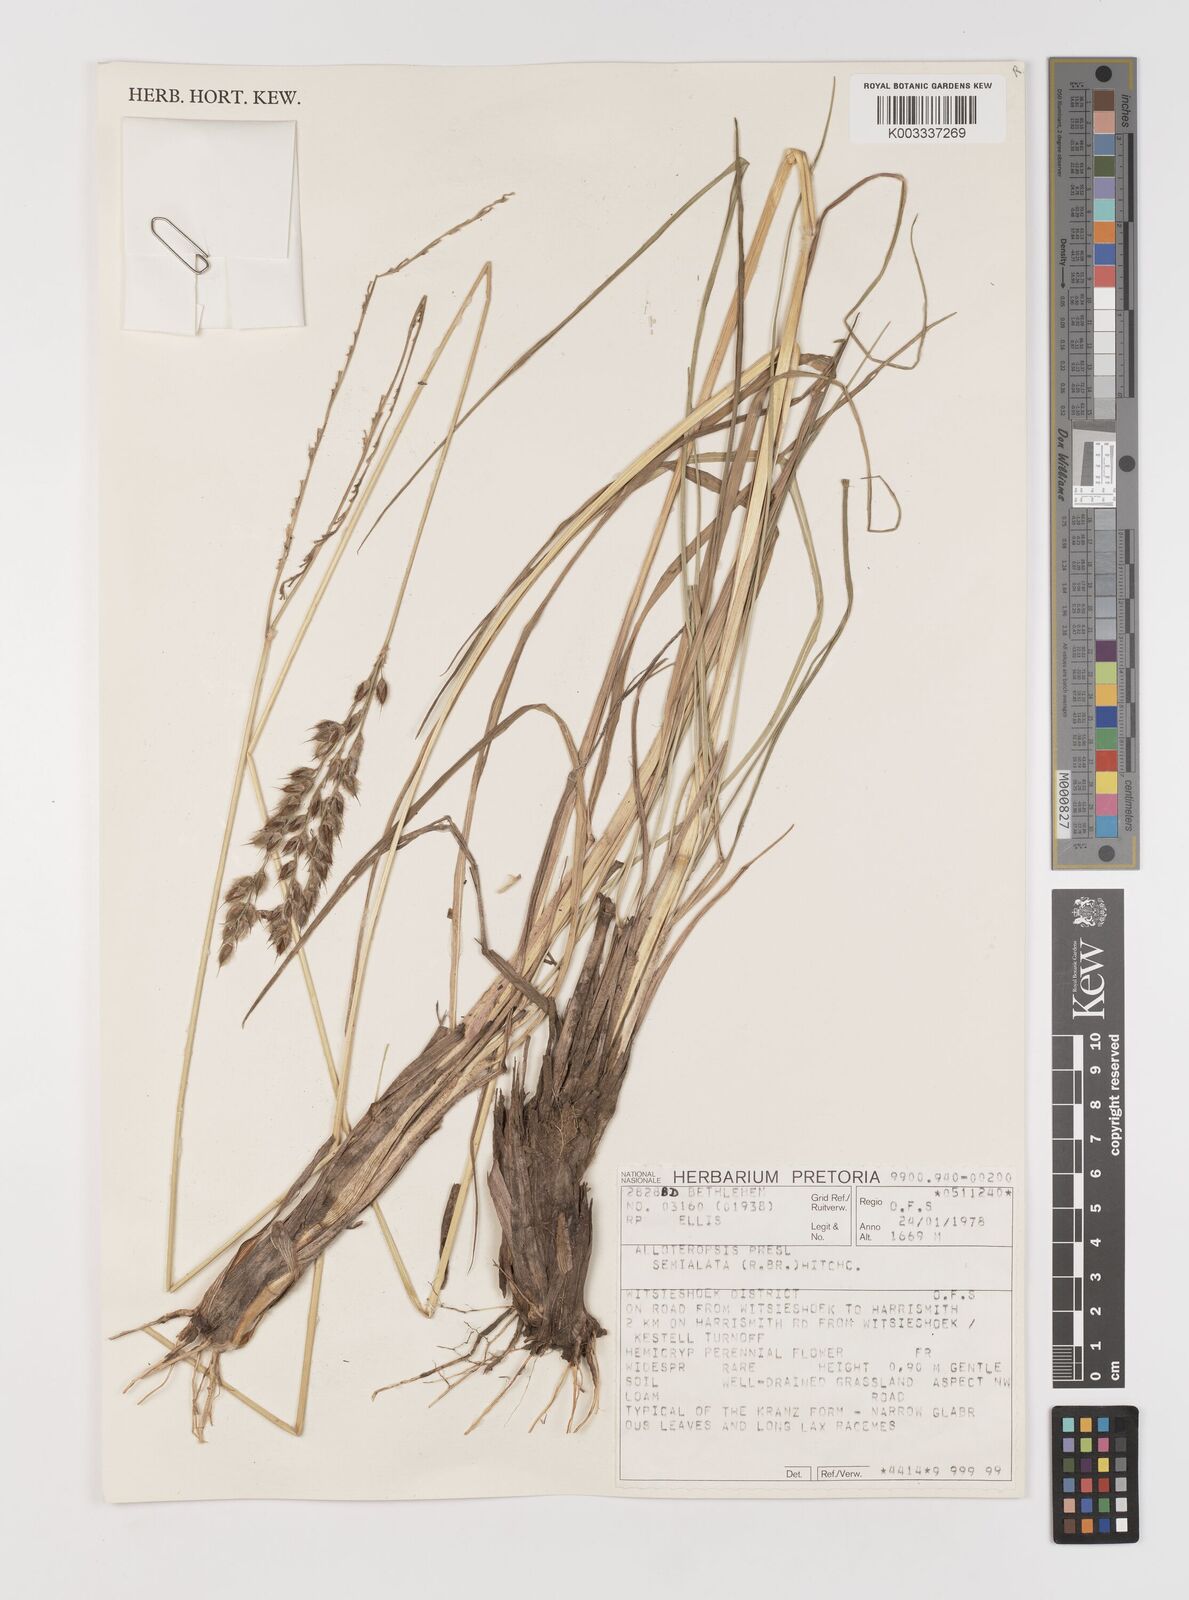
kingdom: Plantae
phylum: Tracheophyta
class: Liliopsida
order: Poales
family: Poaceae
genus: Alloteropsis
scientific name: Alloteropsis semialata
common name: Cockatoo grass
